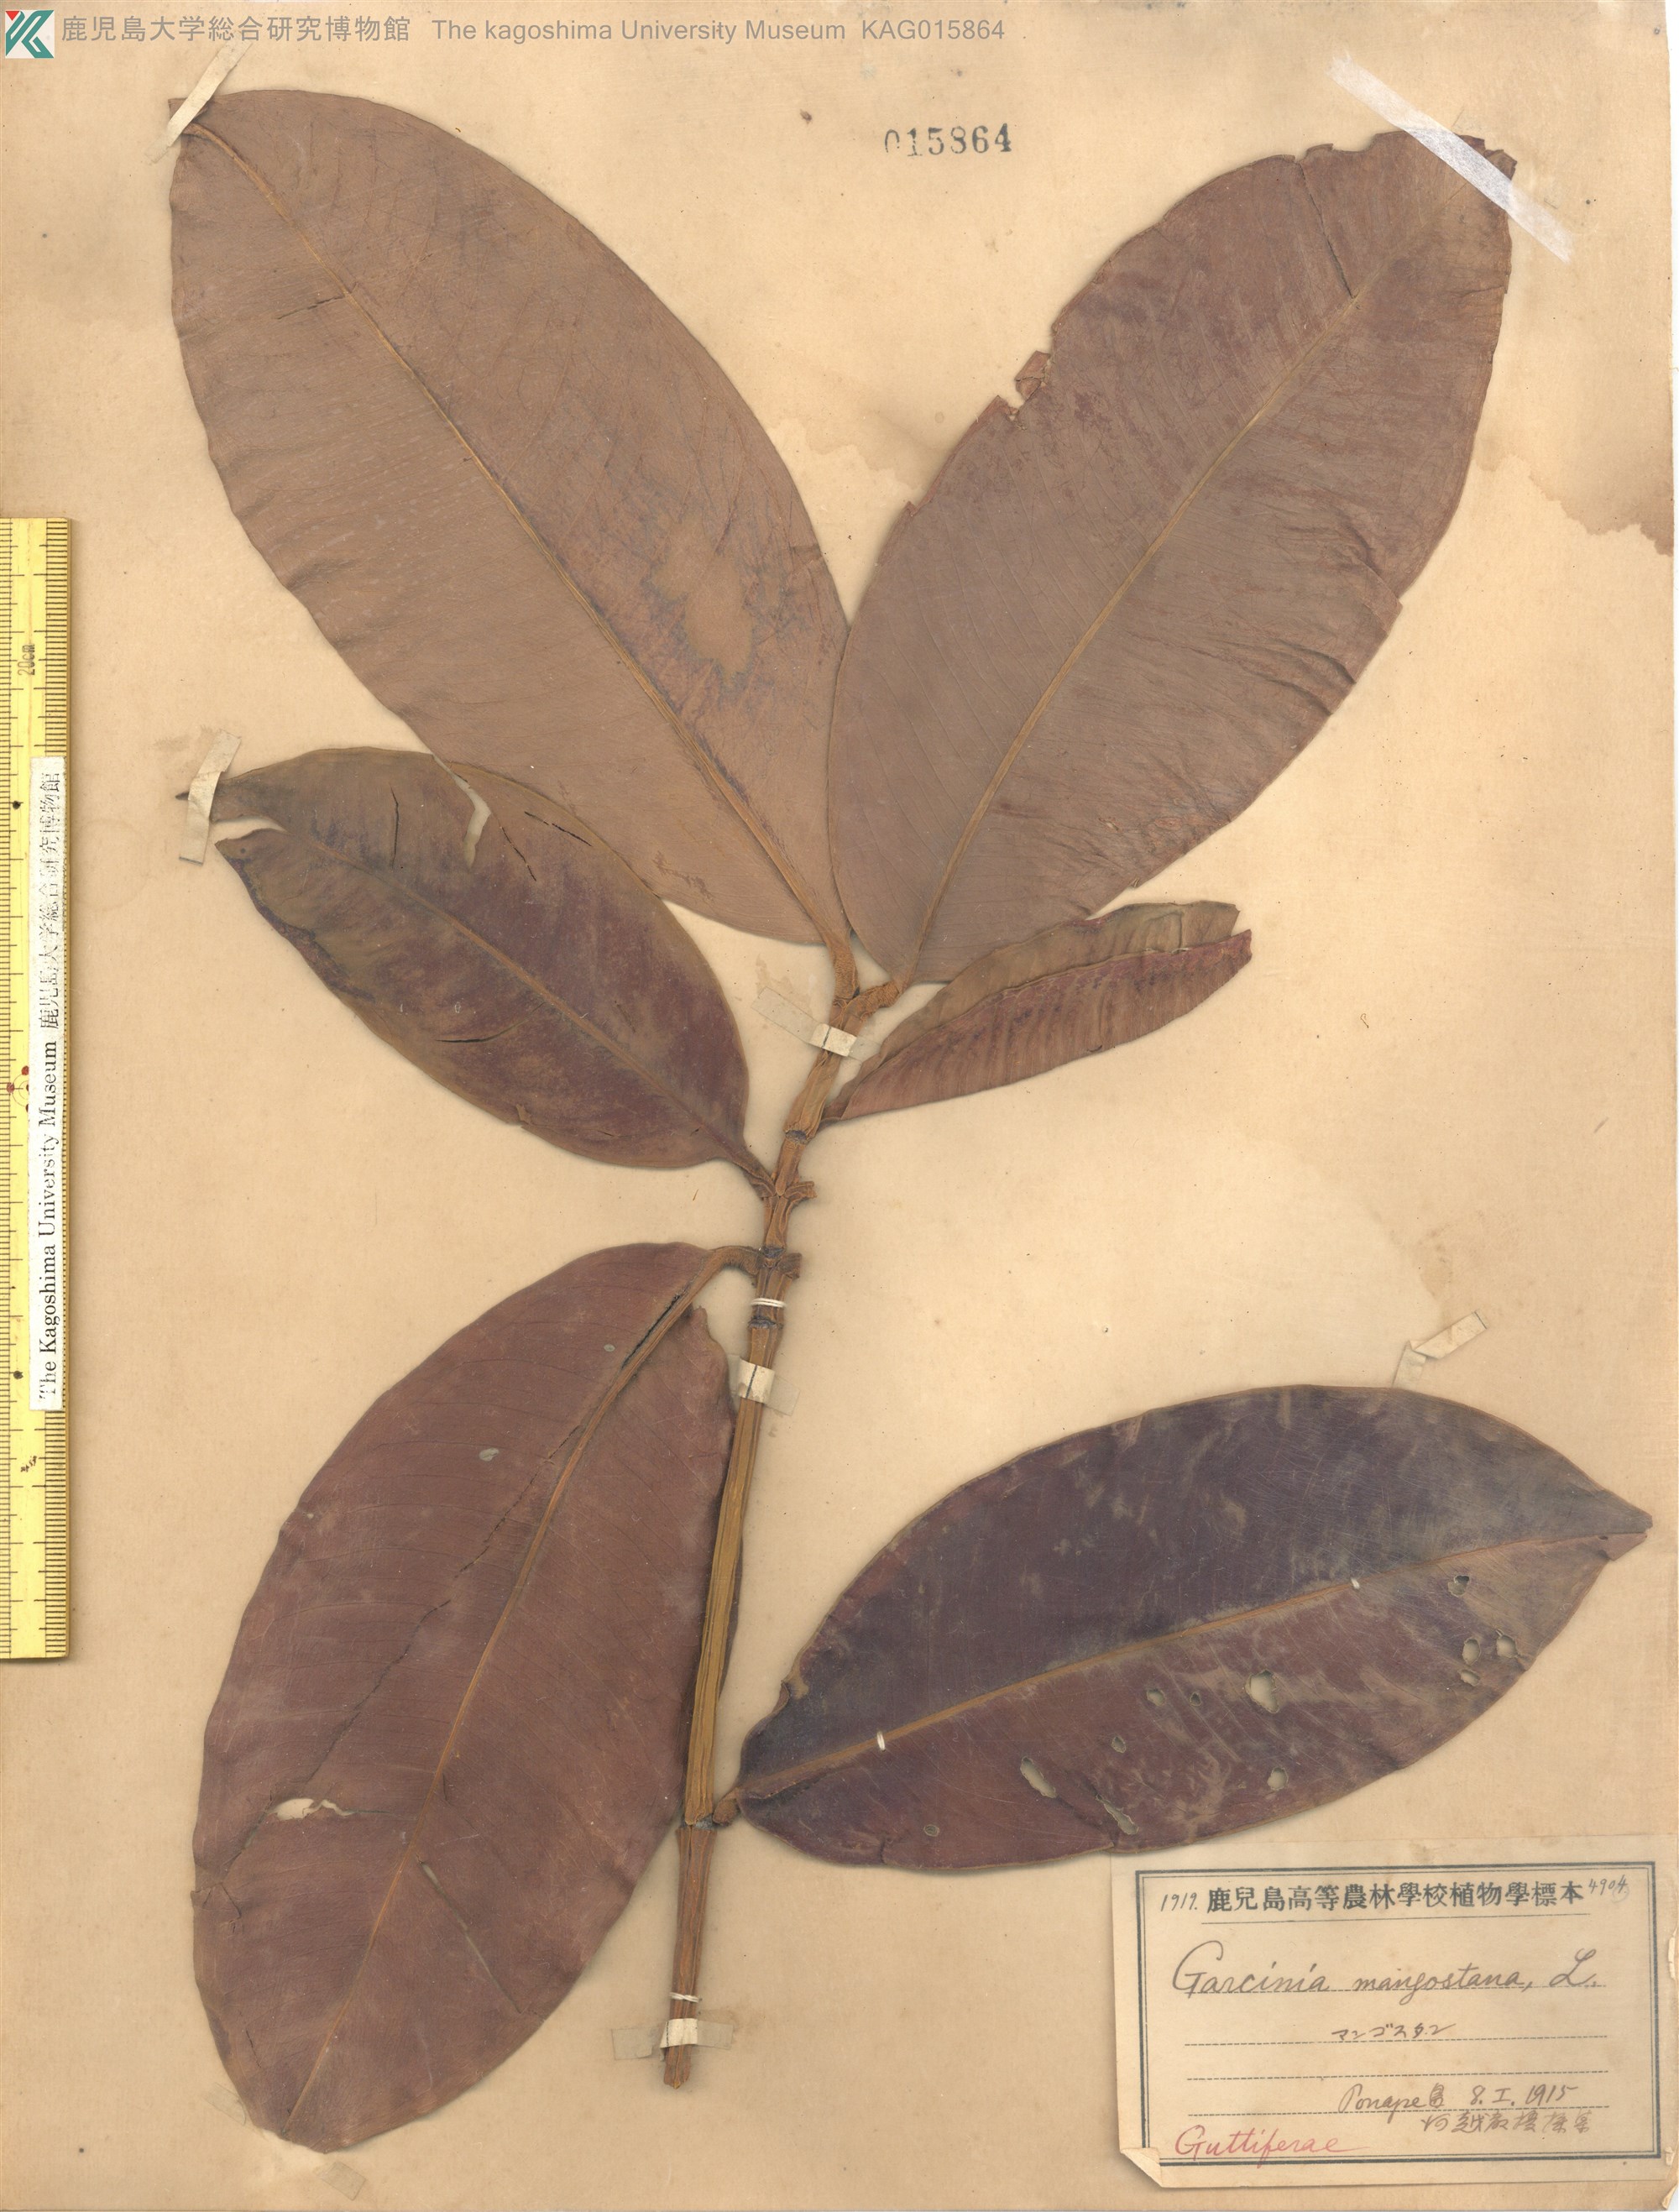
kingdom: Plantae
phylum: Tracheophyta
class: Magnoliopsida
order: Malpighiales
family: Clusiaceae
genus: Garcinia
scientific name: Garcinia mangostana
